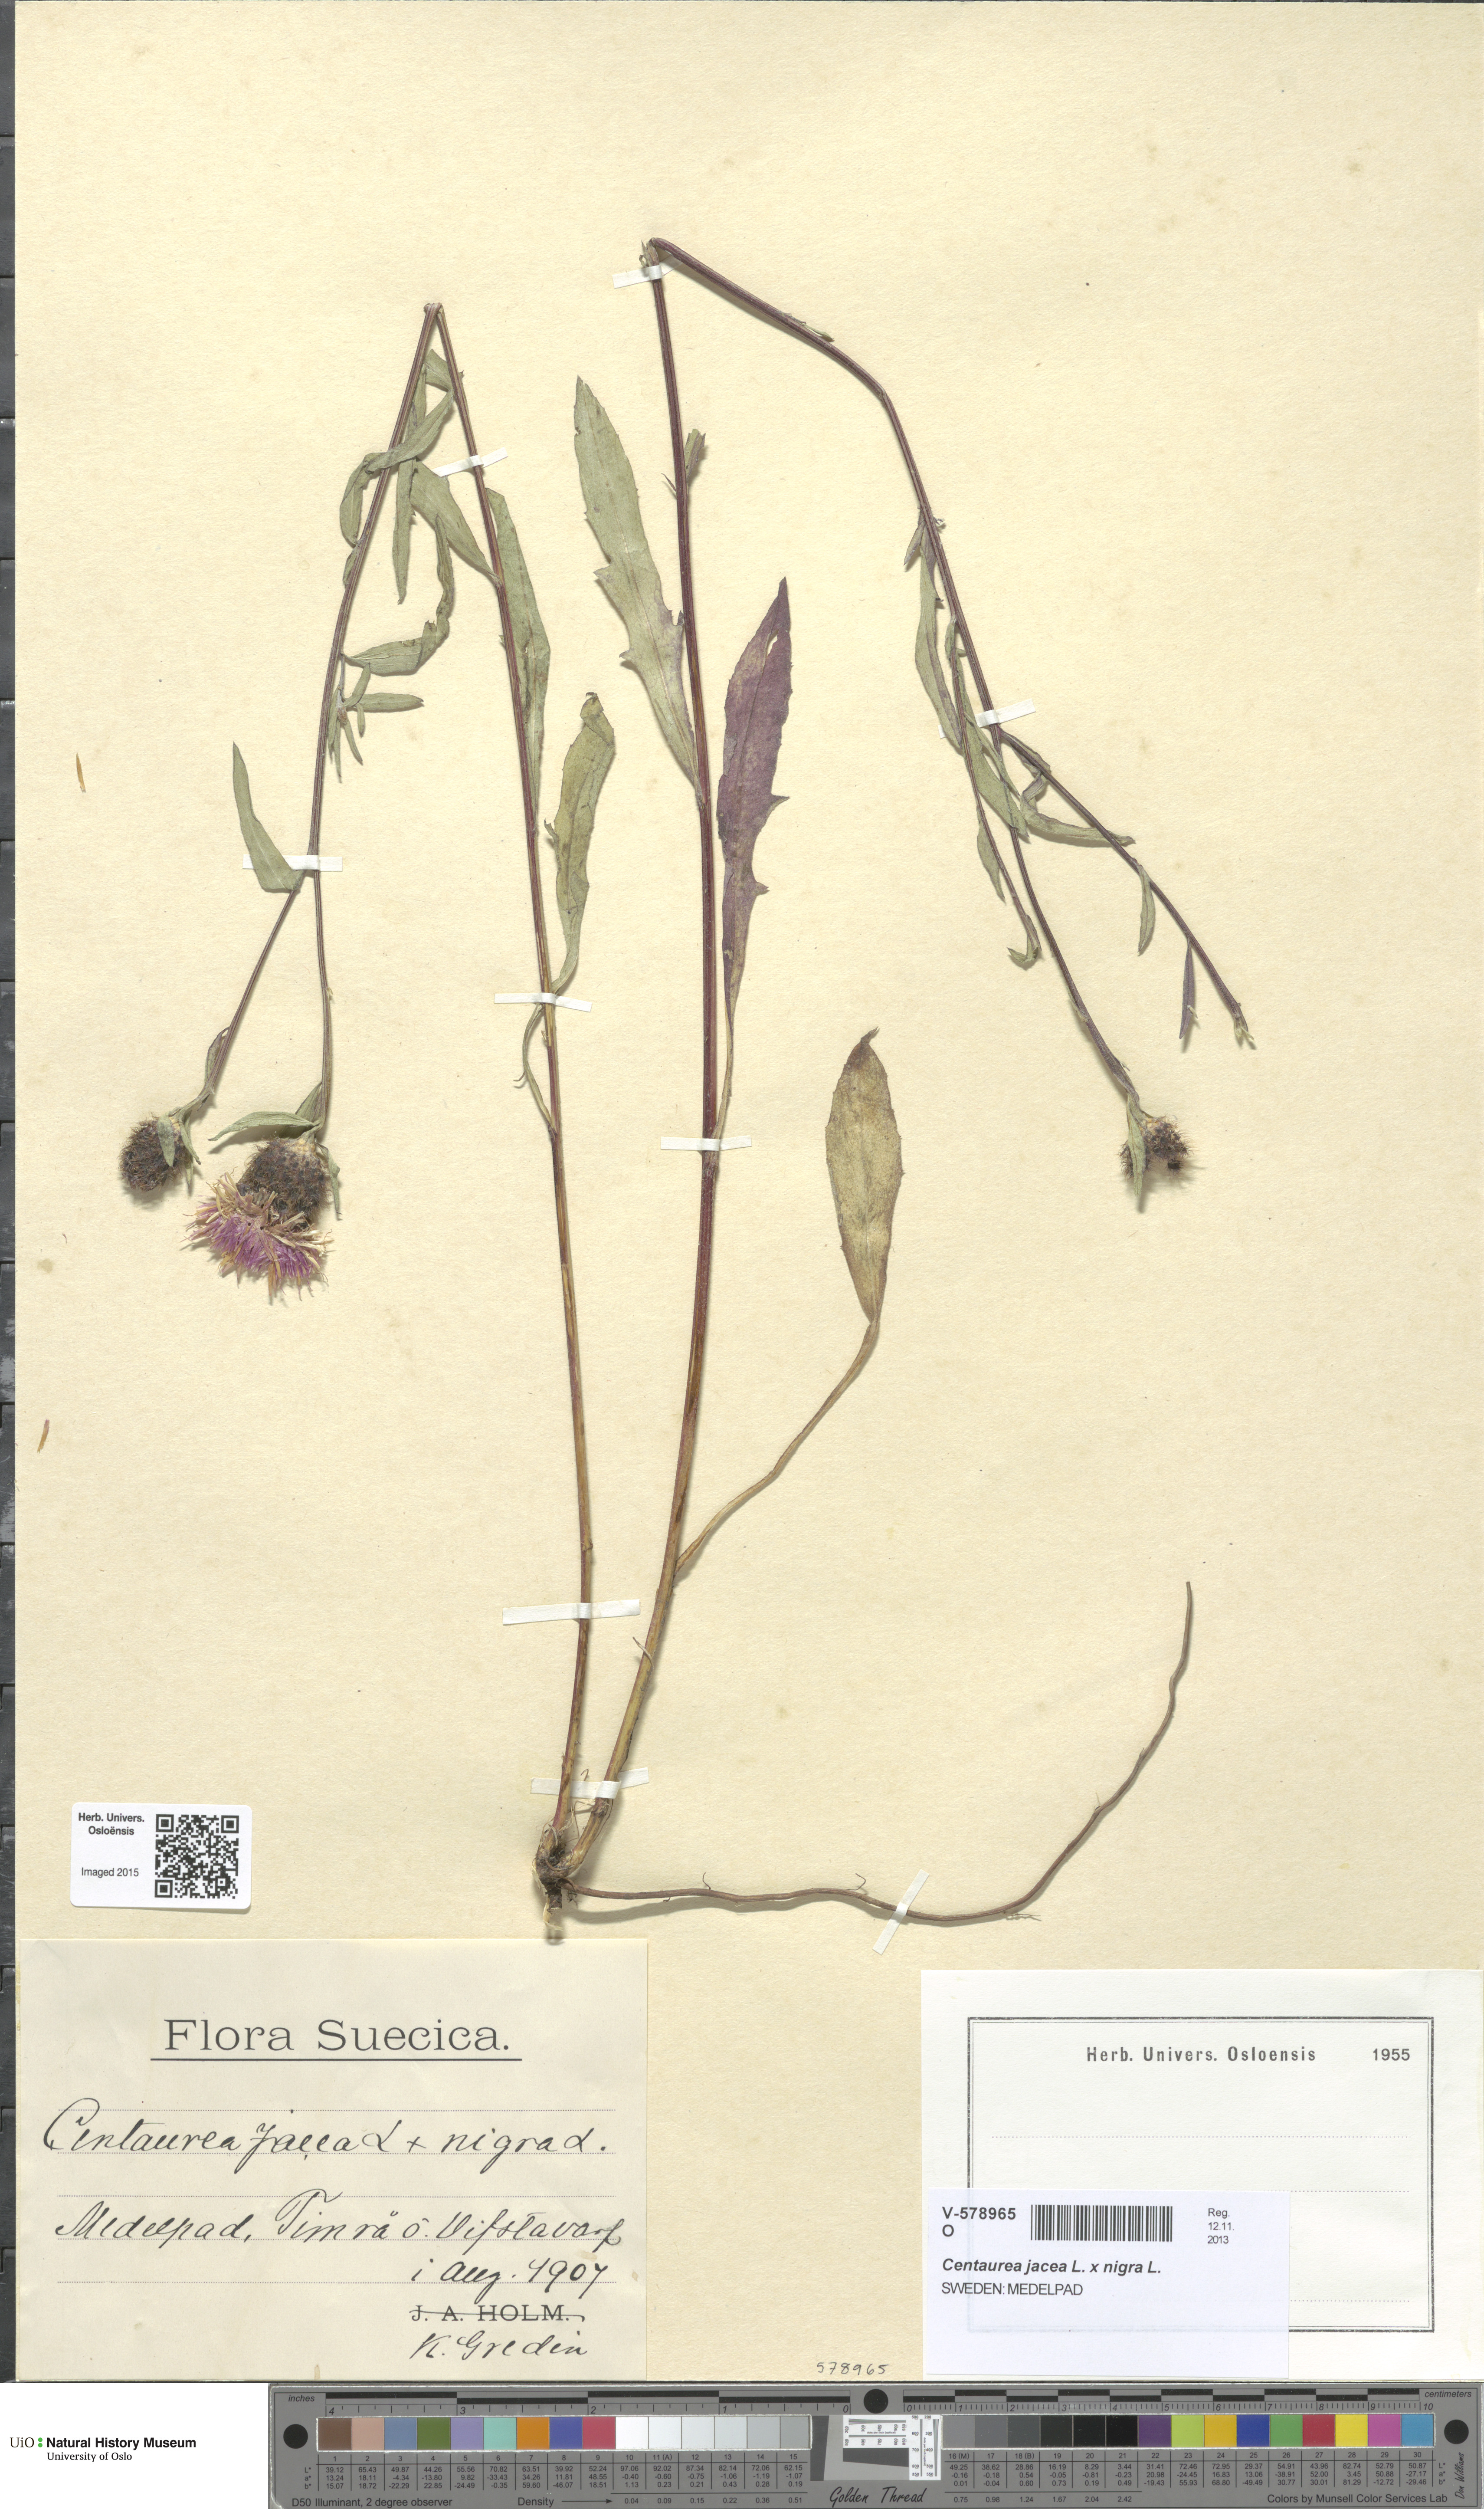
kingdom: Plantae
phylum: Tracheophyta
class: Magnoliopsida
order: Asterales
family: Asteraceae
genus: Centaurea
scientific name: Centaurea
